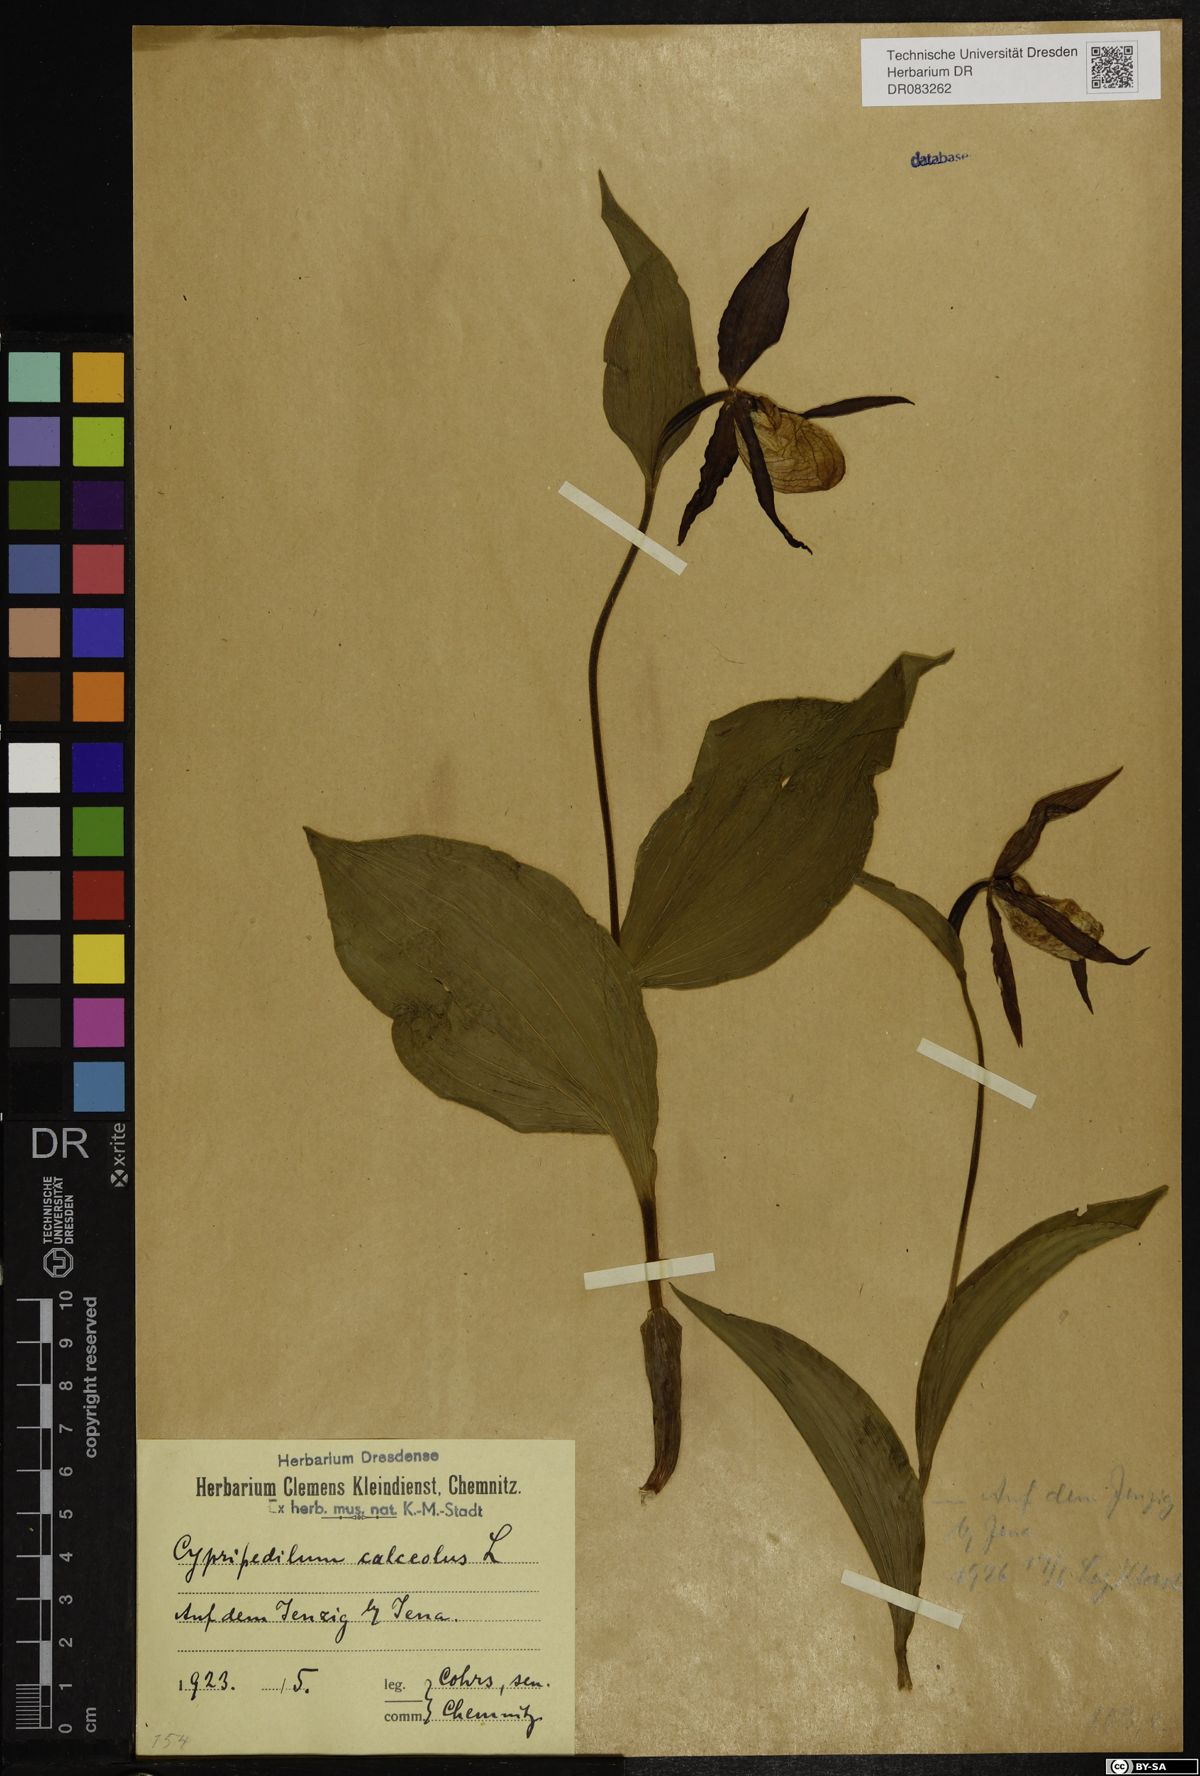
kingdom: Plantae
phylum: Tracheophyta
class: Liliopsida
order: Asparagales
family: Orchidaceae
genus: Cypripedium
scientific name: Cypripedium calceolus
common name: Lady's-slipper
